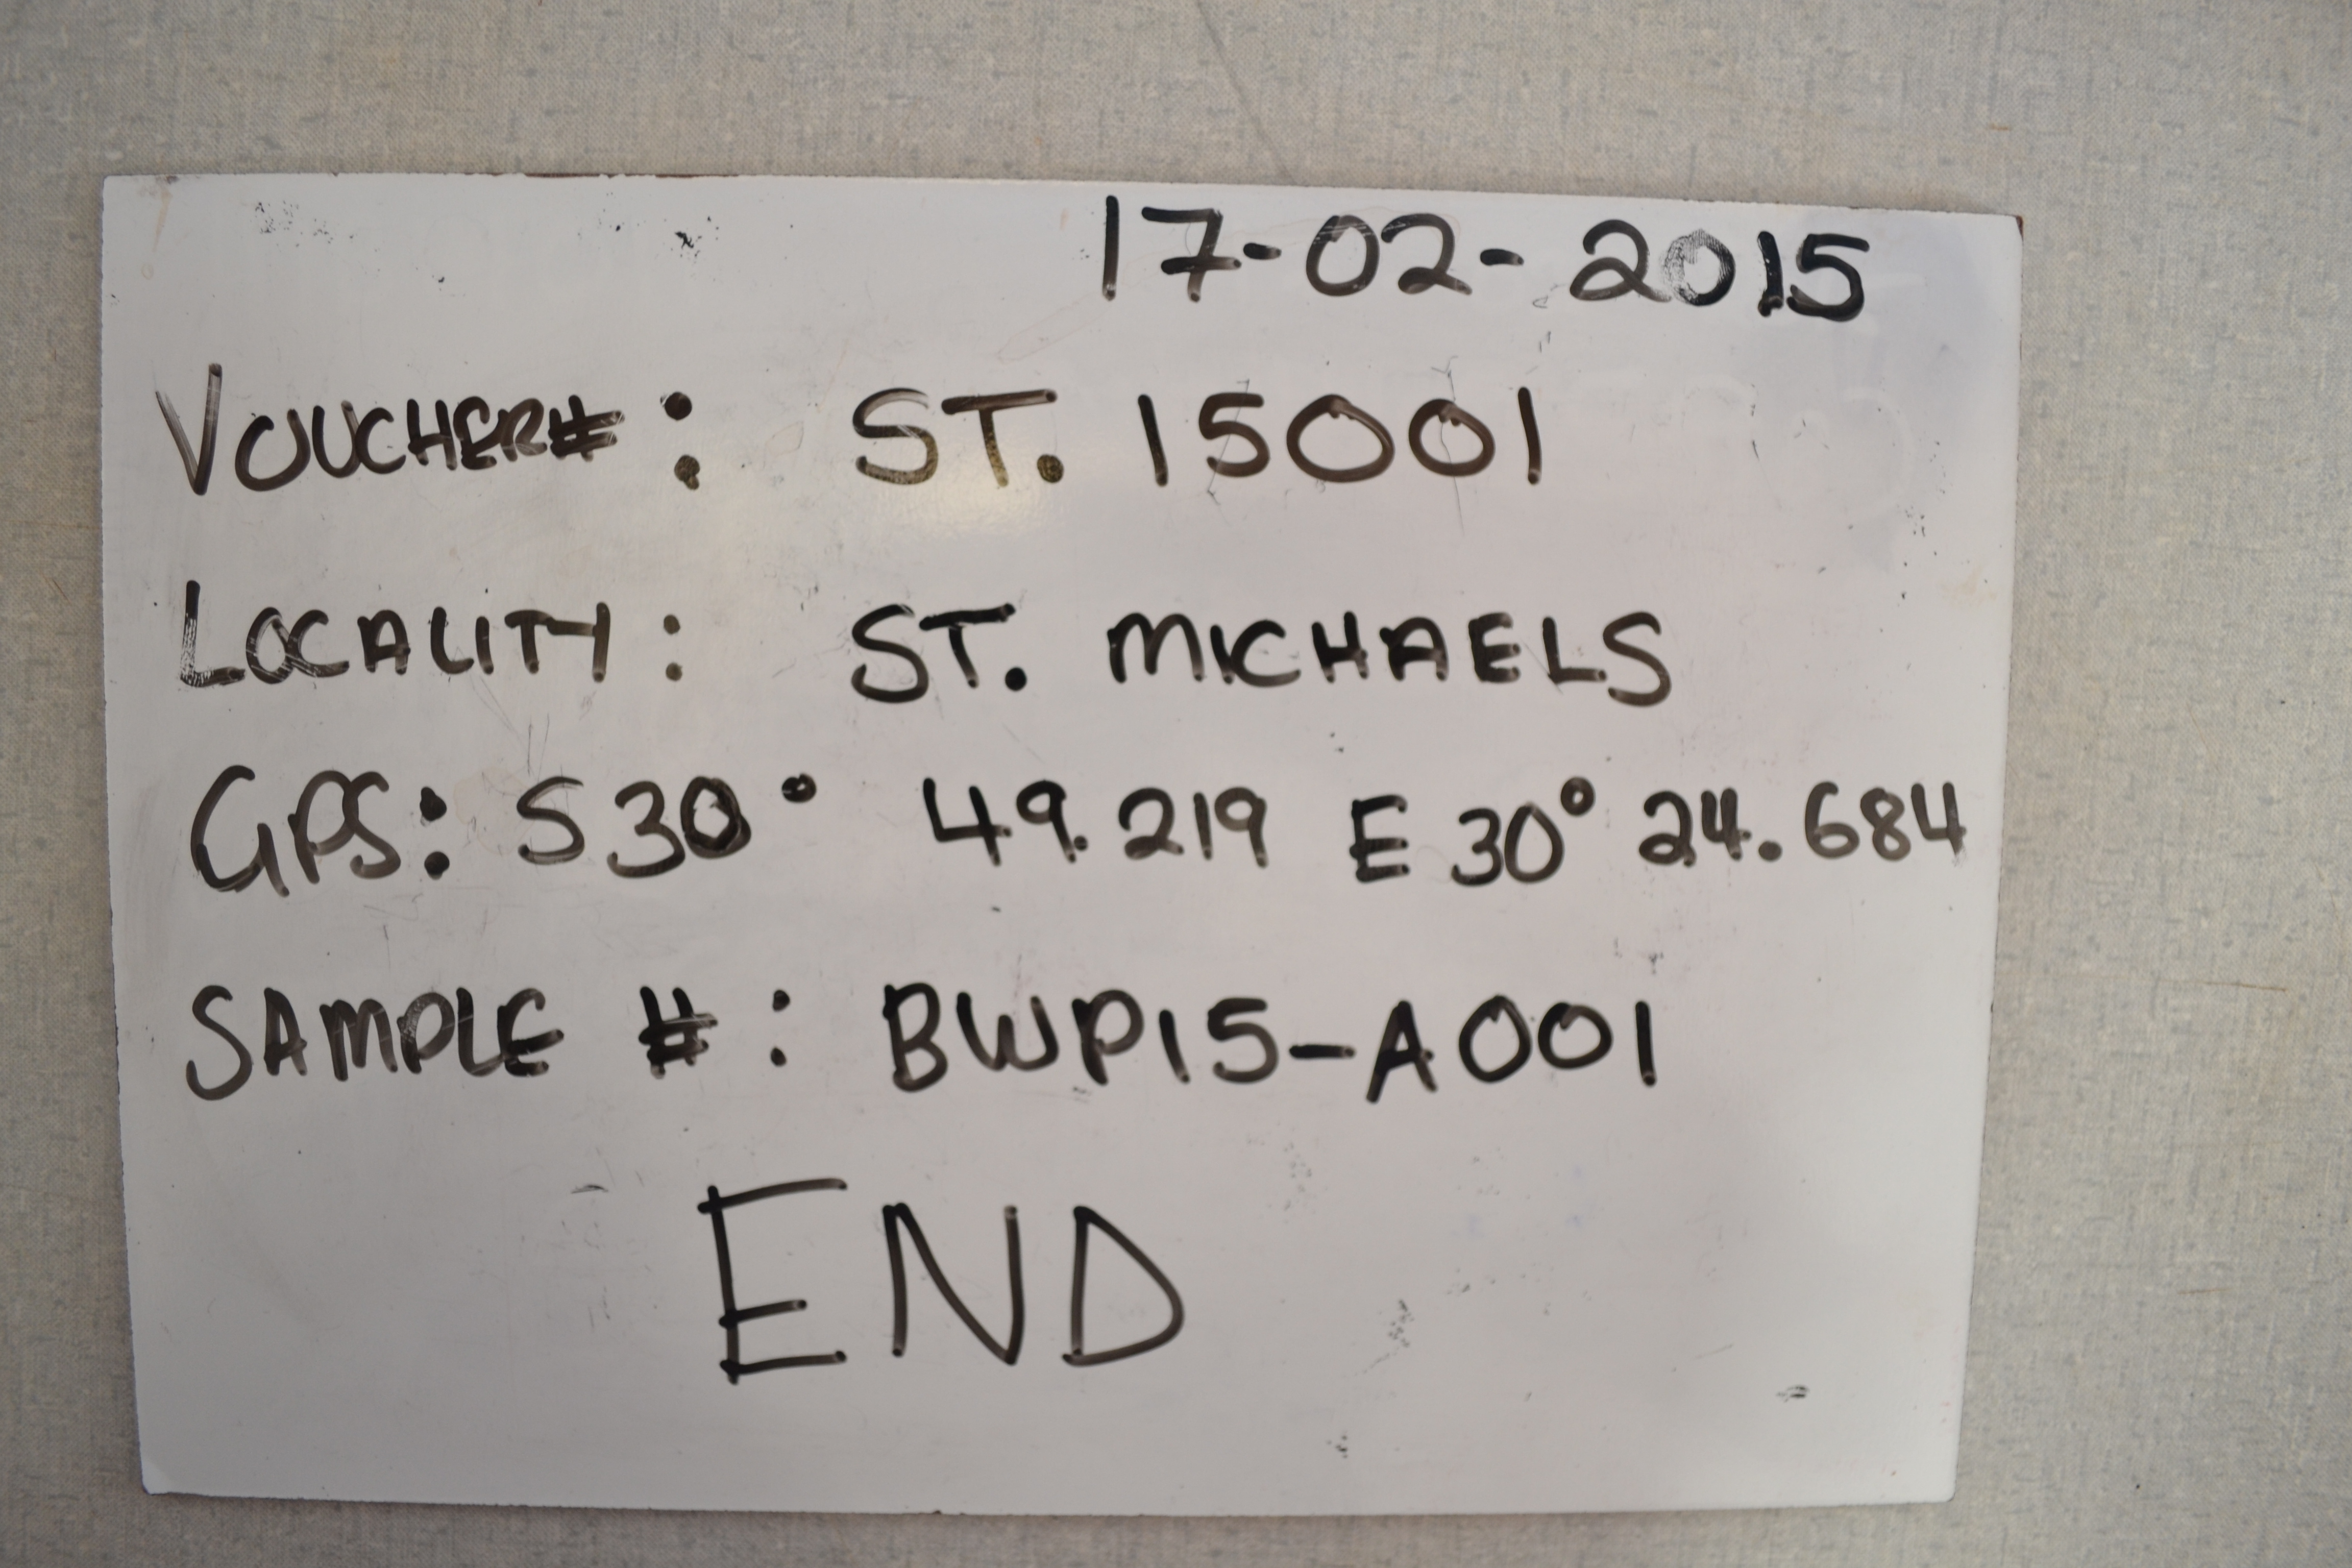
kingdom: Animalia
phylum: Chordata
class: Elasmobranchii
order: Carcharhiniformes
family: Carcharhinidae
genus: Carcharhinus
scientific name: Carcharhinus plumbeus
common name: Sandbar shark
